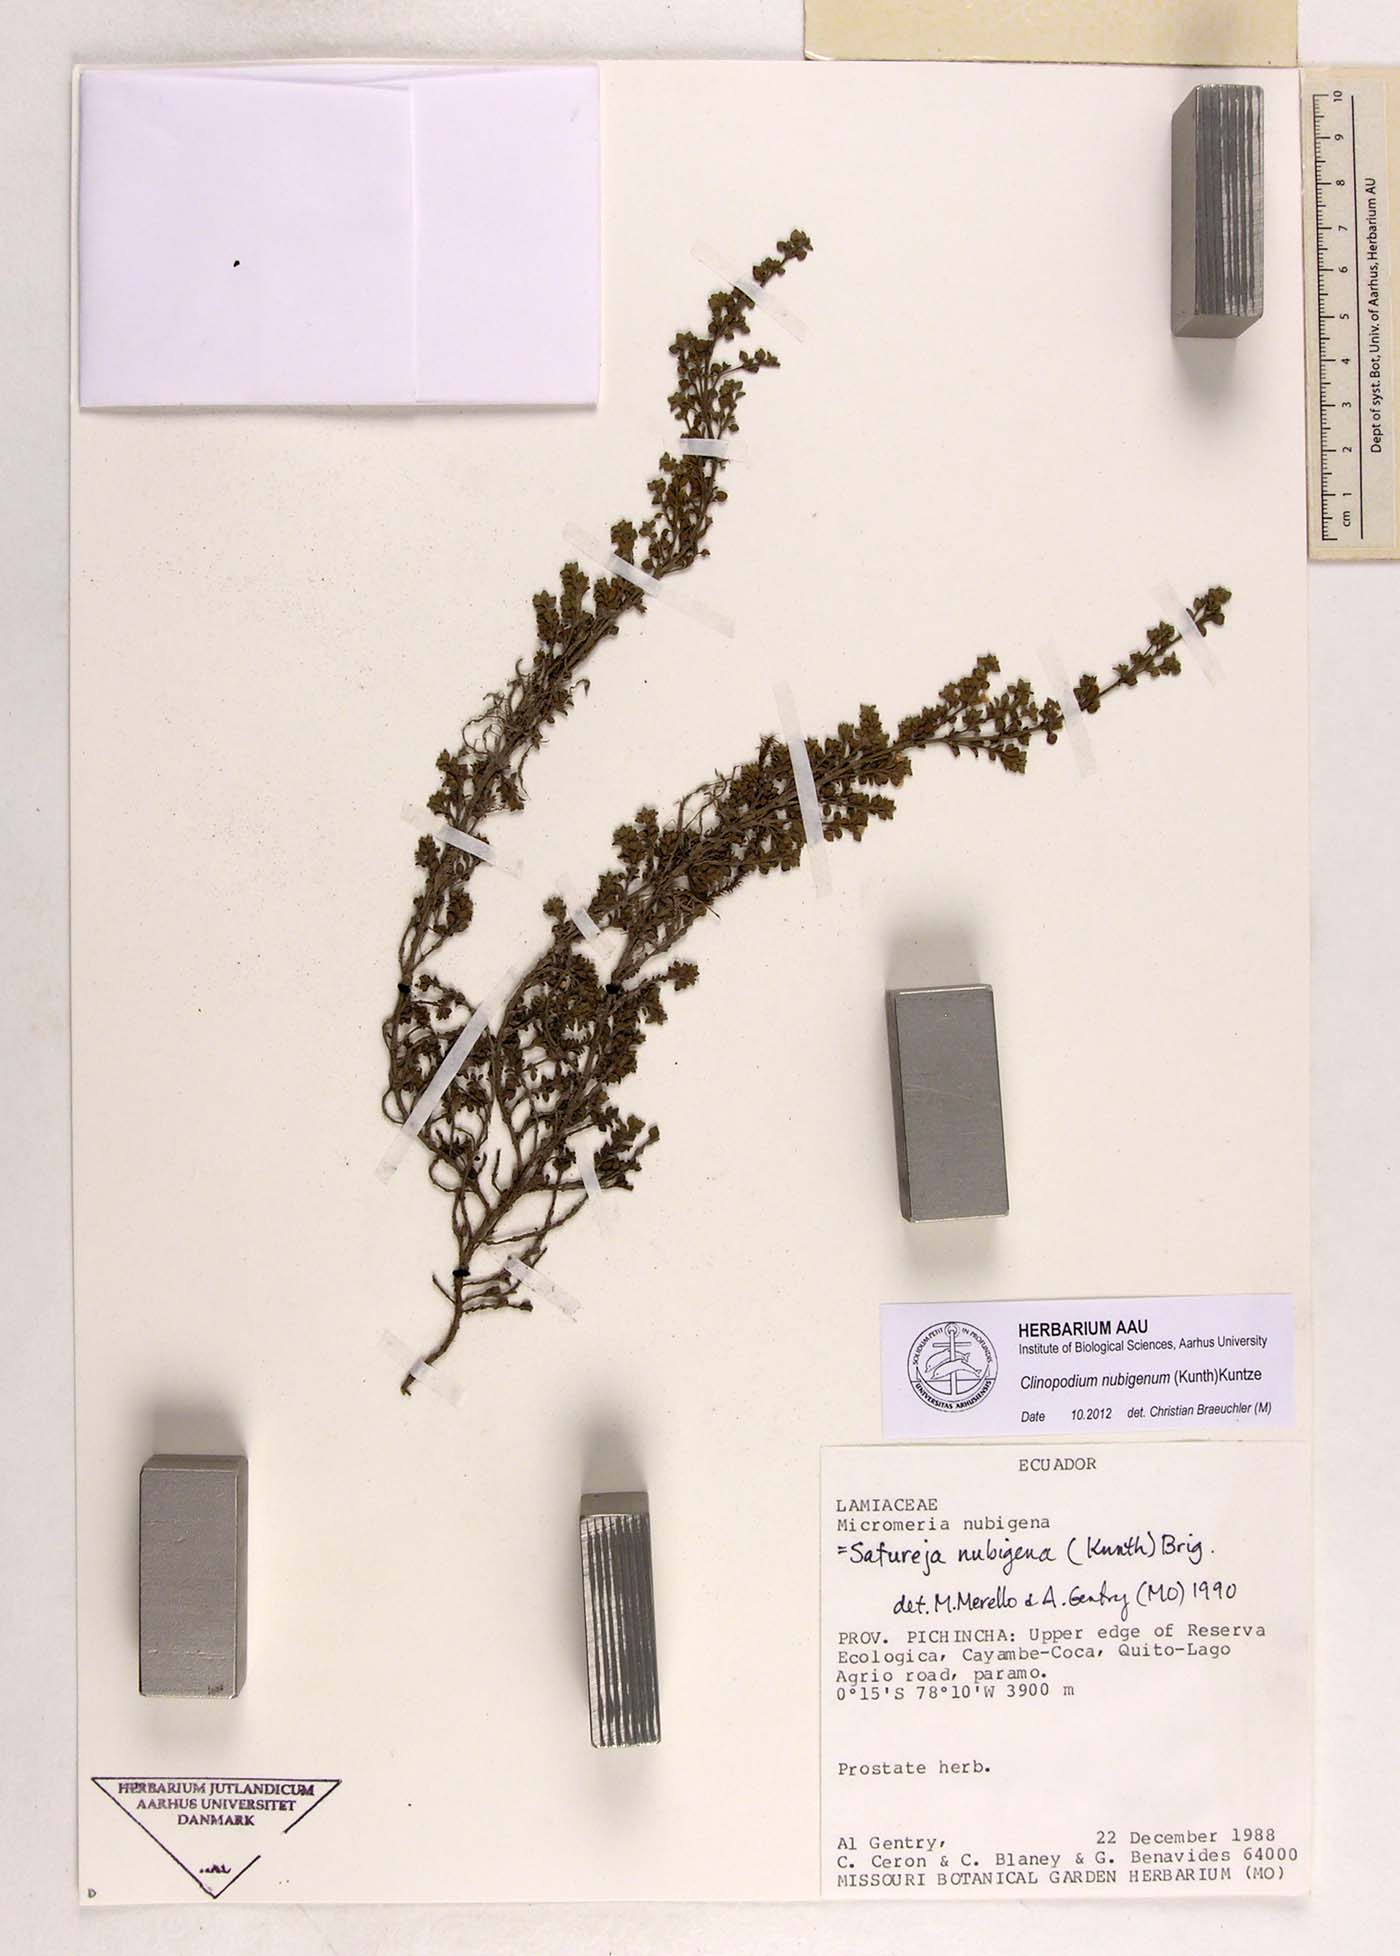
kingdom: Plantae
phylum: Tracheophyta
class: Magnoliopsida
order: Lamiales
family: Lamiaceae
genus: Clinopodium
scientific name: Clinopodium nubigenum
